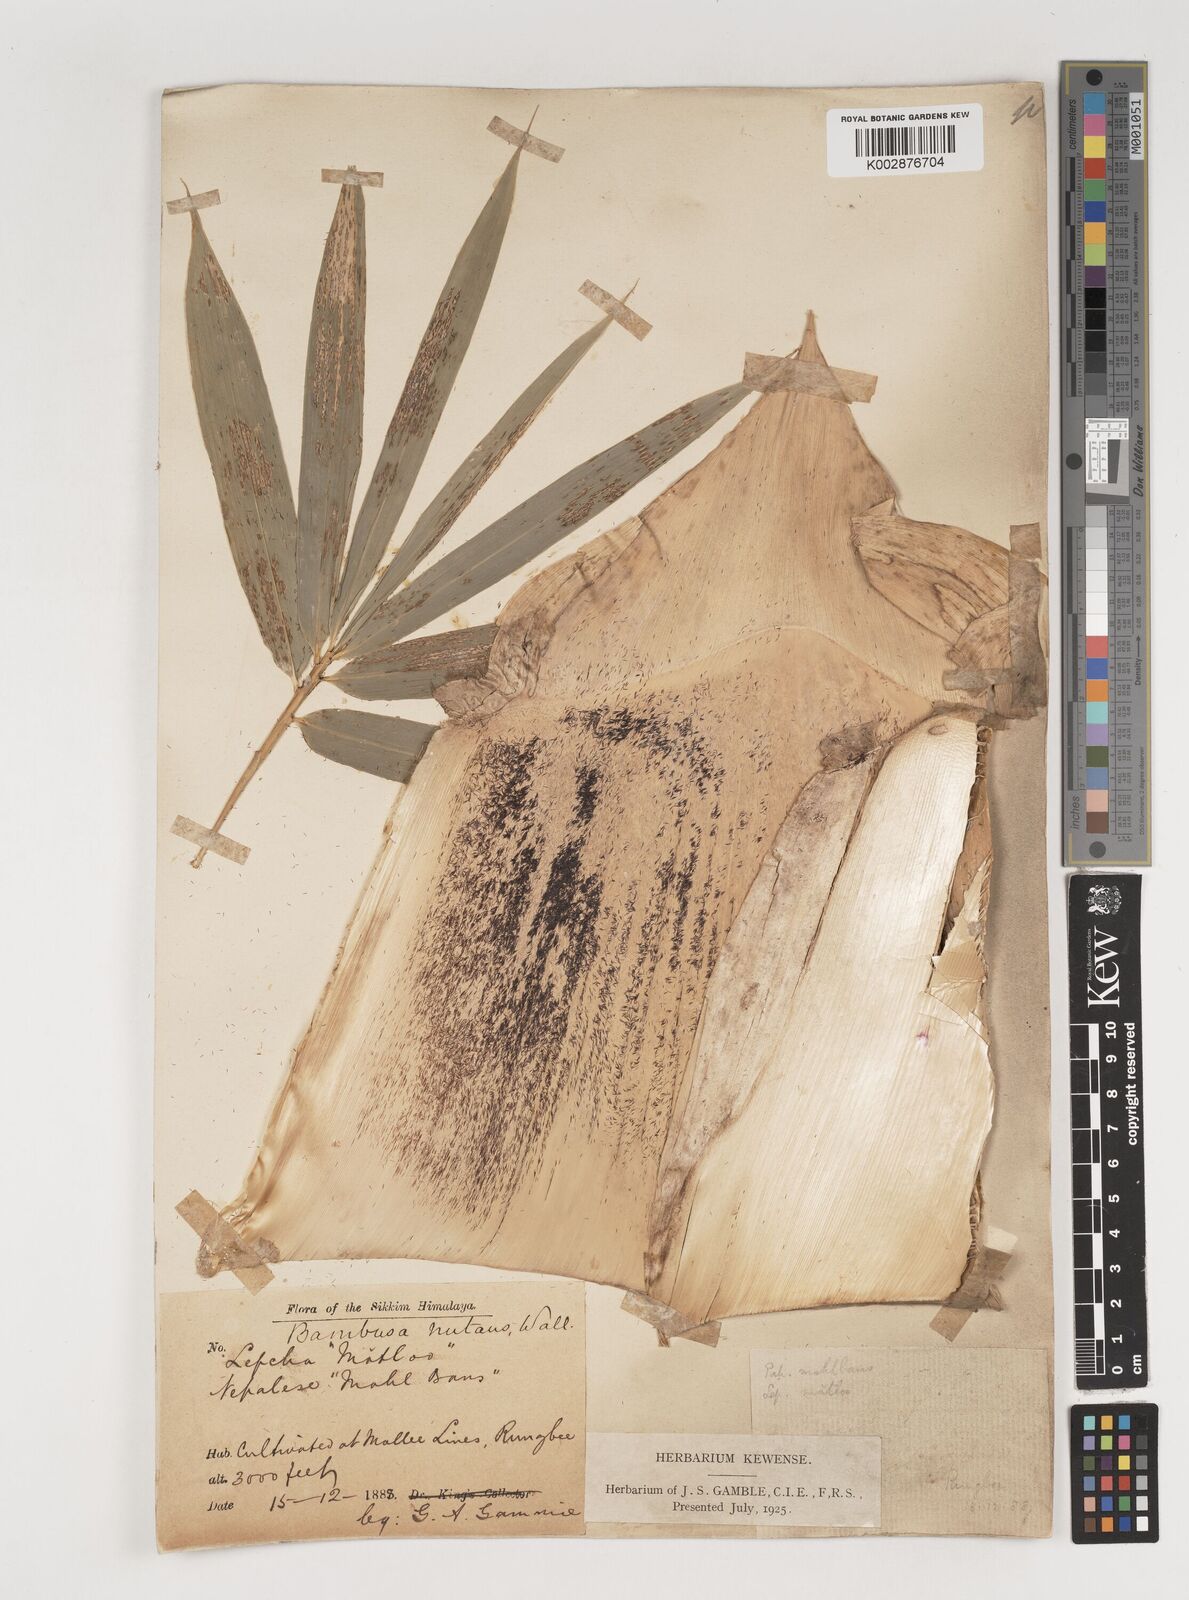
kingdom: Plantae
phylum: Tracheophyta
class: Liliopsida
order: Poales
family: Poaceae
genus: Bambusa
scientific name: Bambusa nutans
